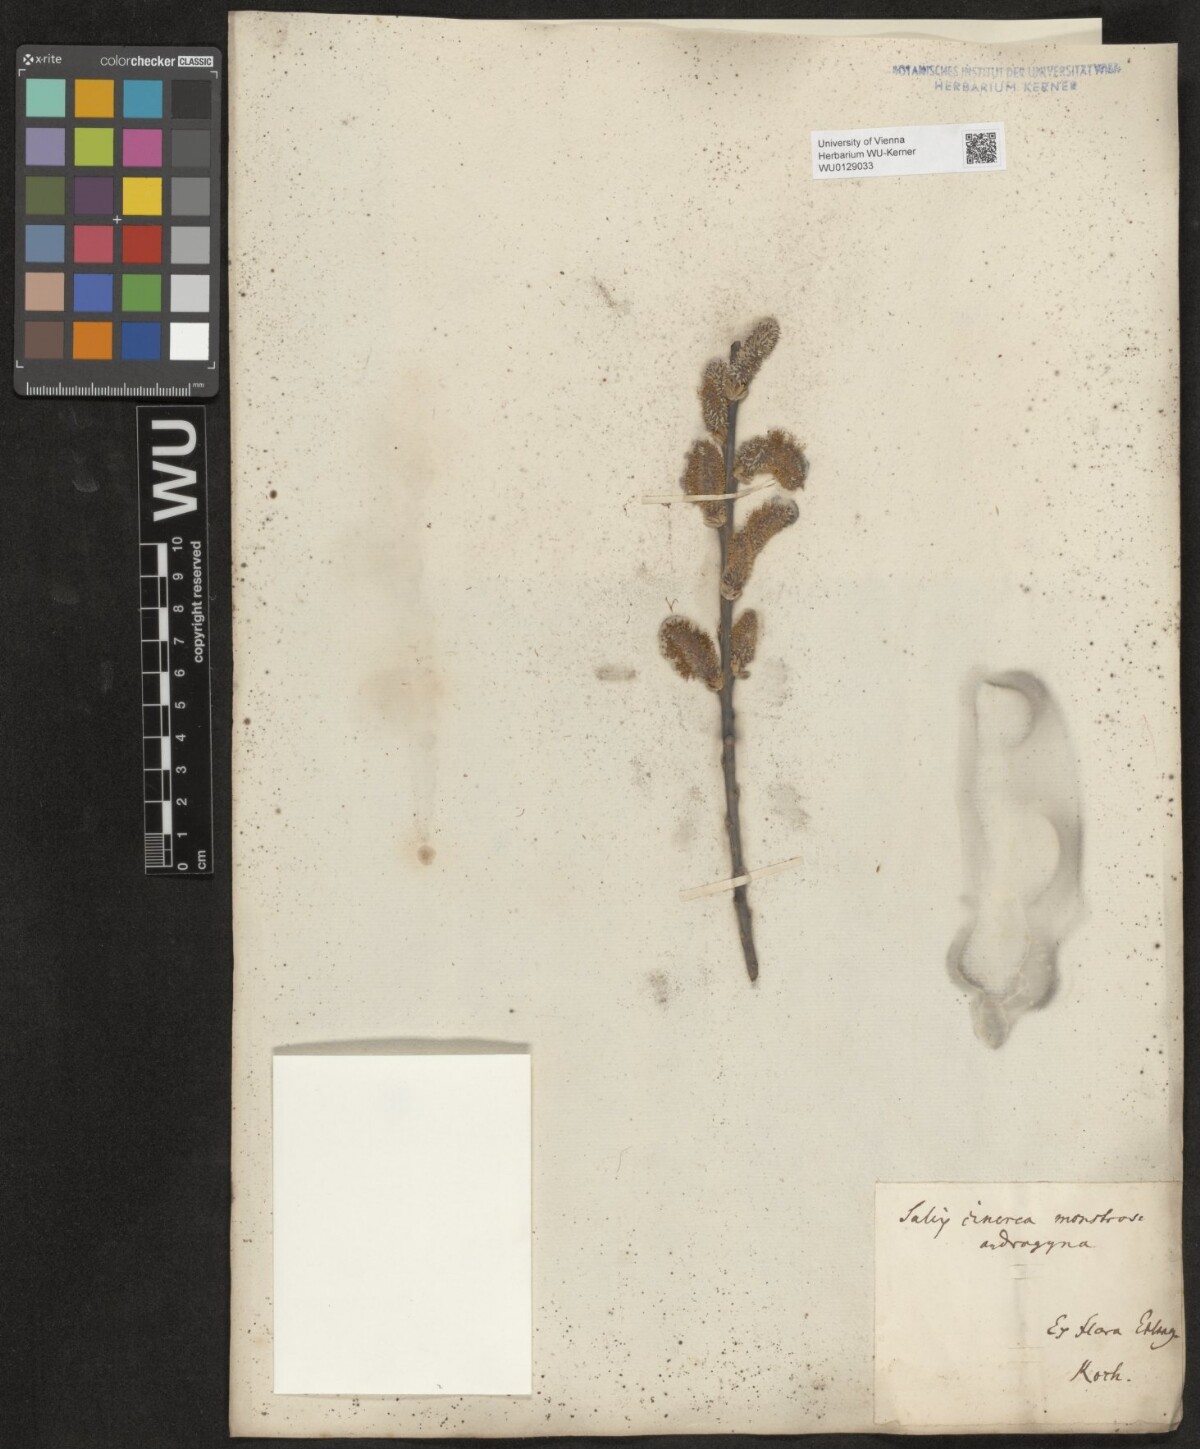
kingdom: Plantae
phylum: Tracheophyta
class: Magnoliopsida
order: Malpighiales
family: Salicaceae
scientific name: Salicaceae
